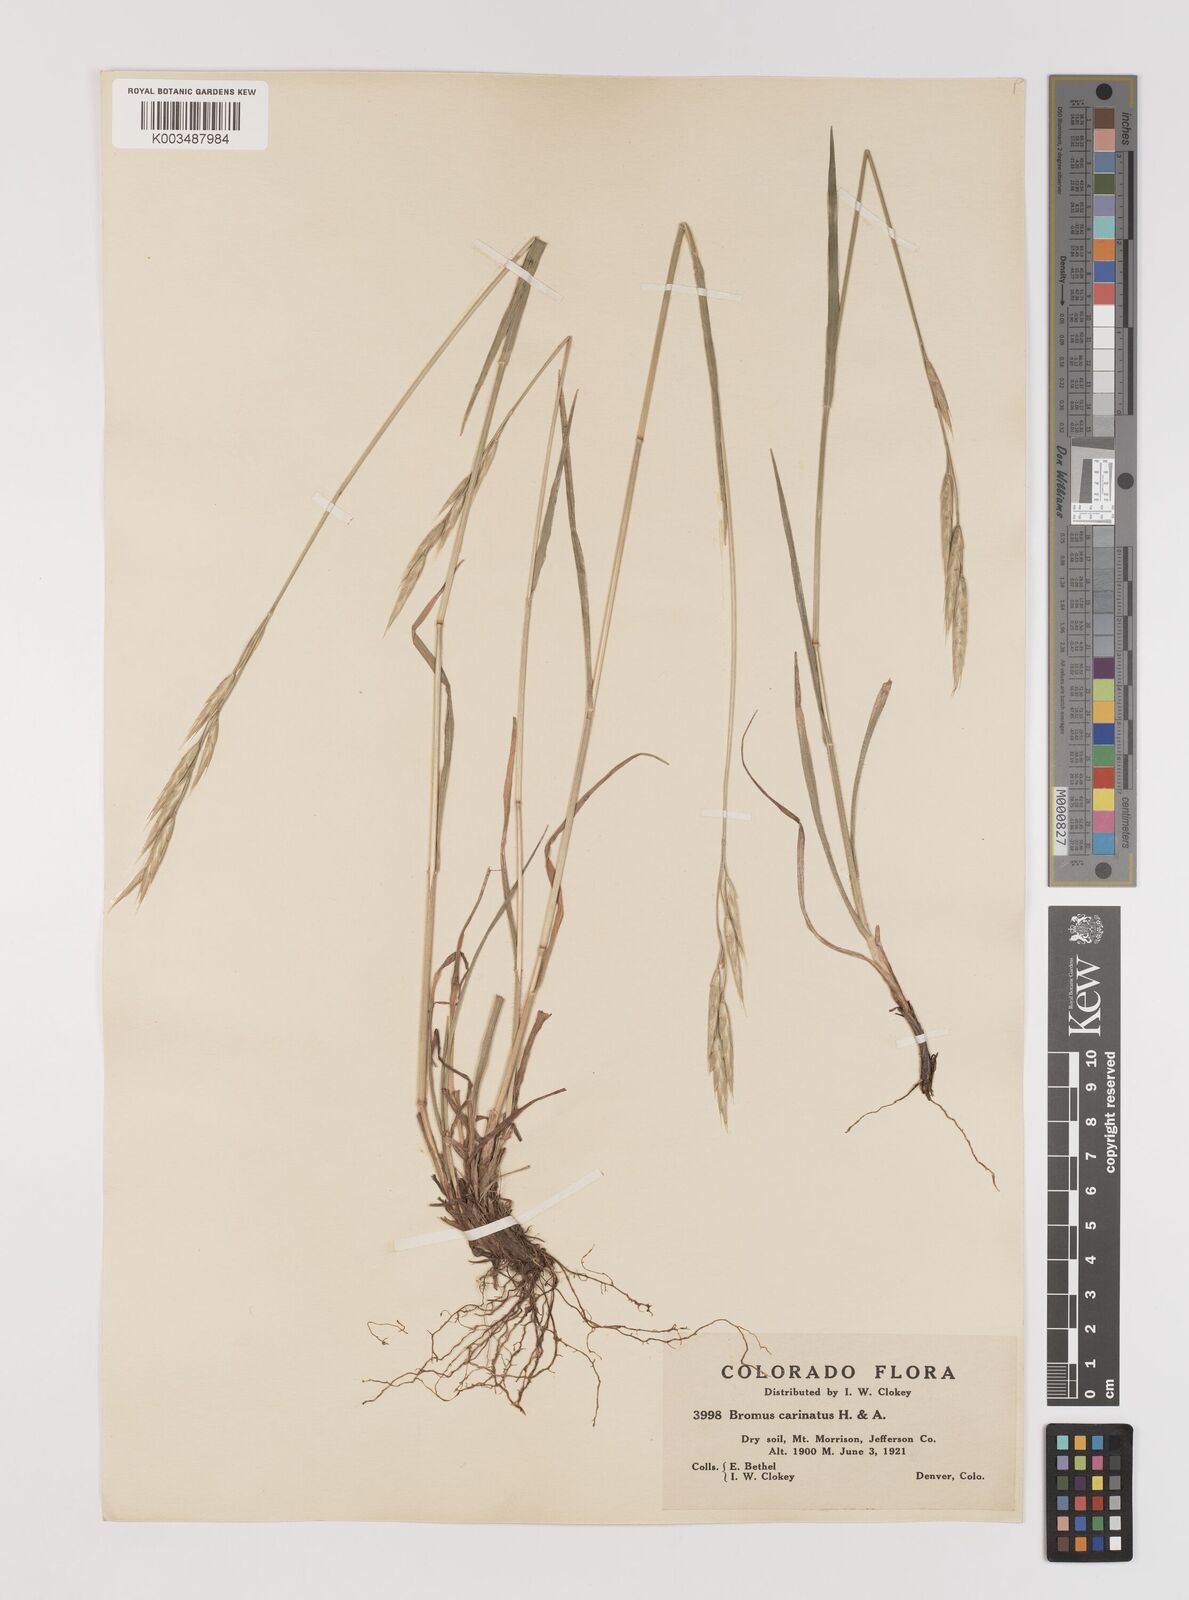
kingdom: Plantae
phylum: Tracheophyta
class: Liliopsida
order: Poales
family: Poaceae
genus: Bromus
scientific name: Bromus marginatus
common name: Western brome
